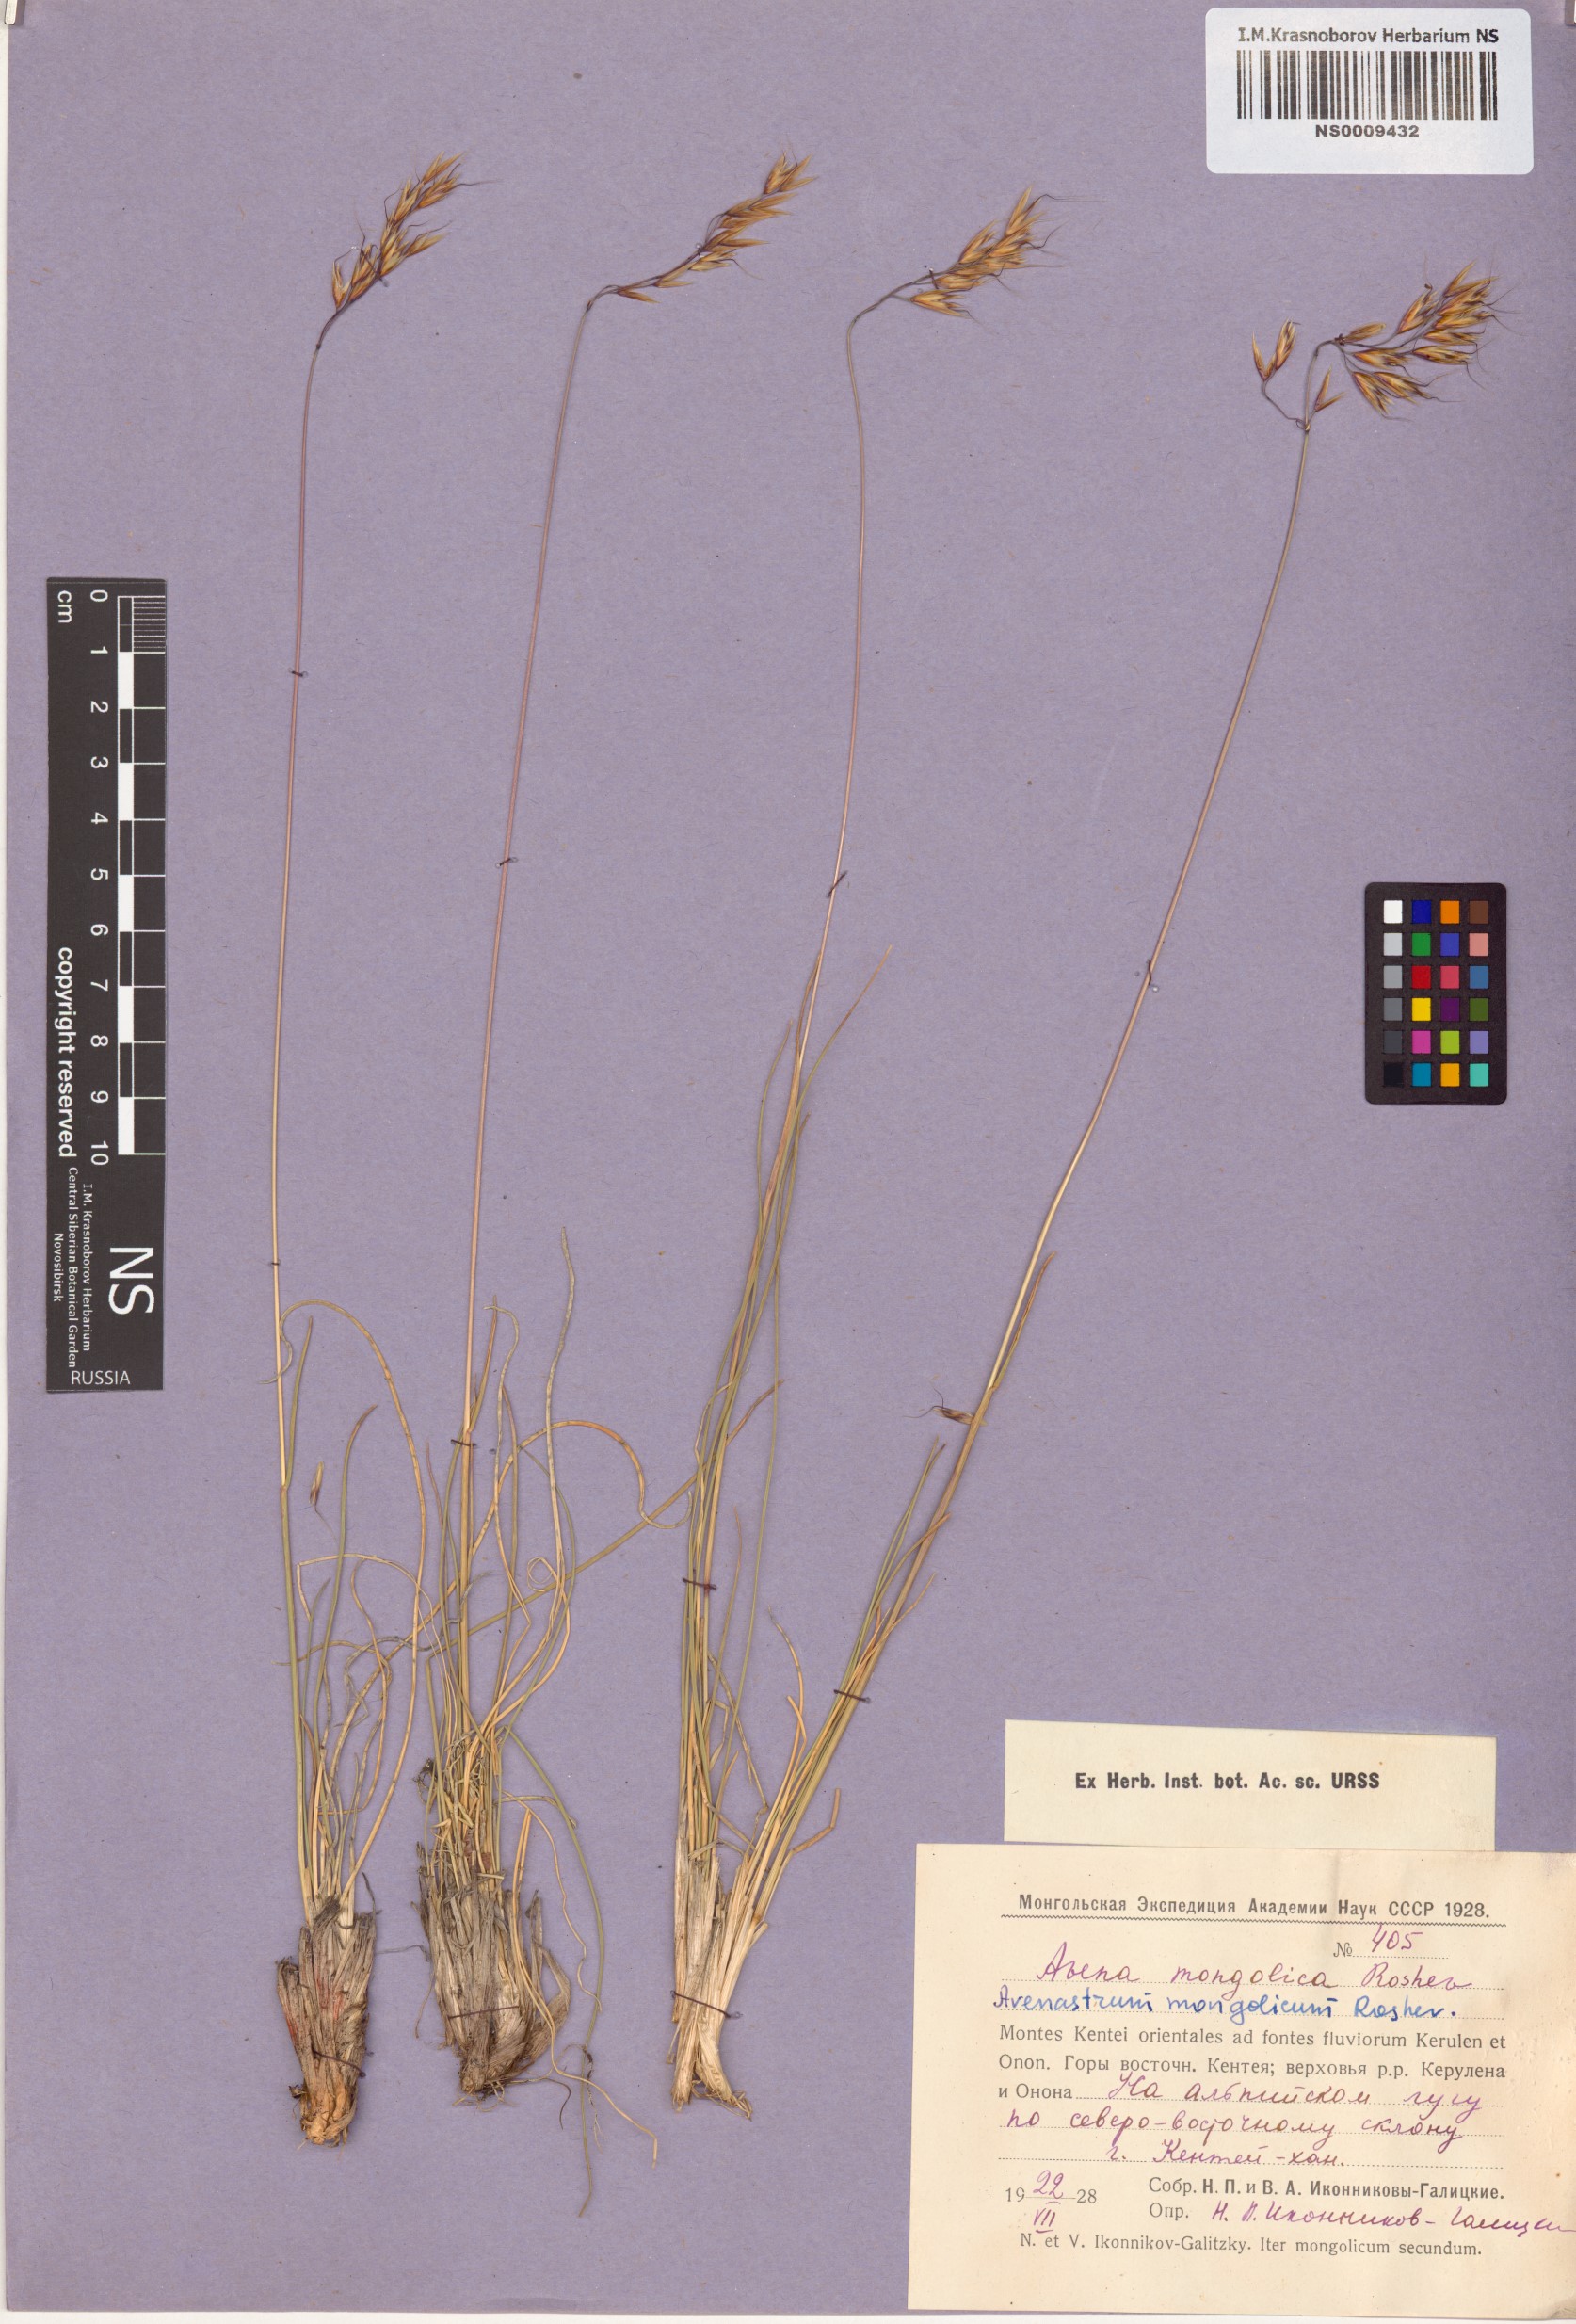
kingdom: Plantae
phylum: Tracheophyta
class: Liliopsida
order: Poales
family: Poaceae
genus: Helictotrichon
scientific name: Helictotrichon mongolicum
